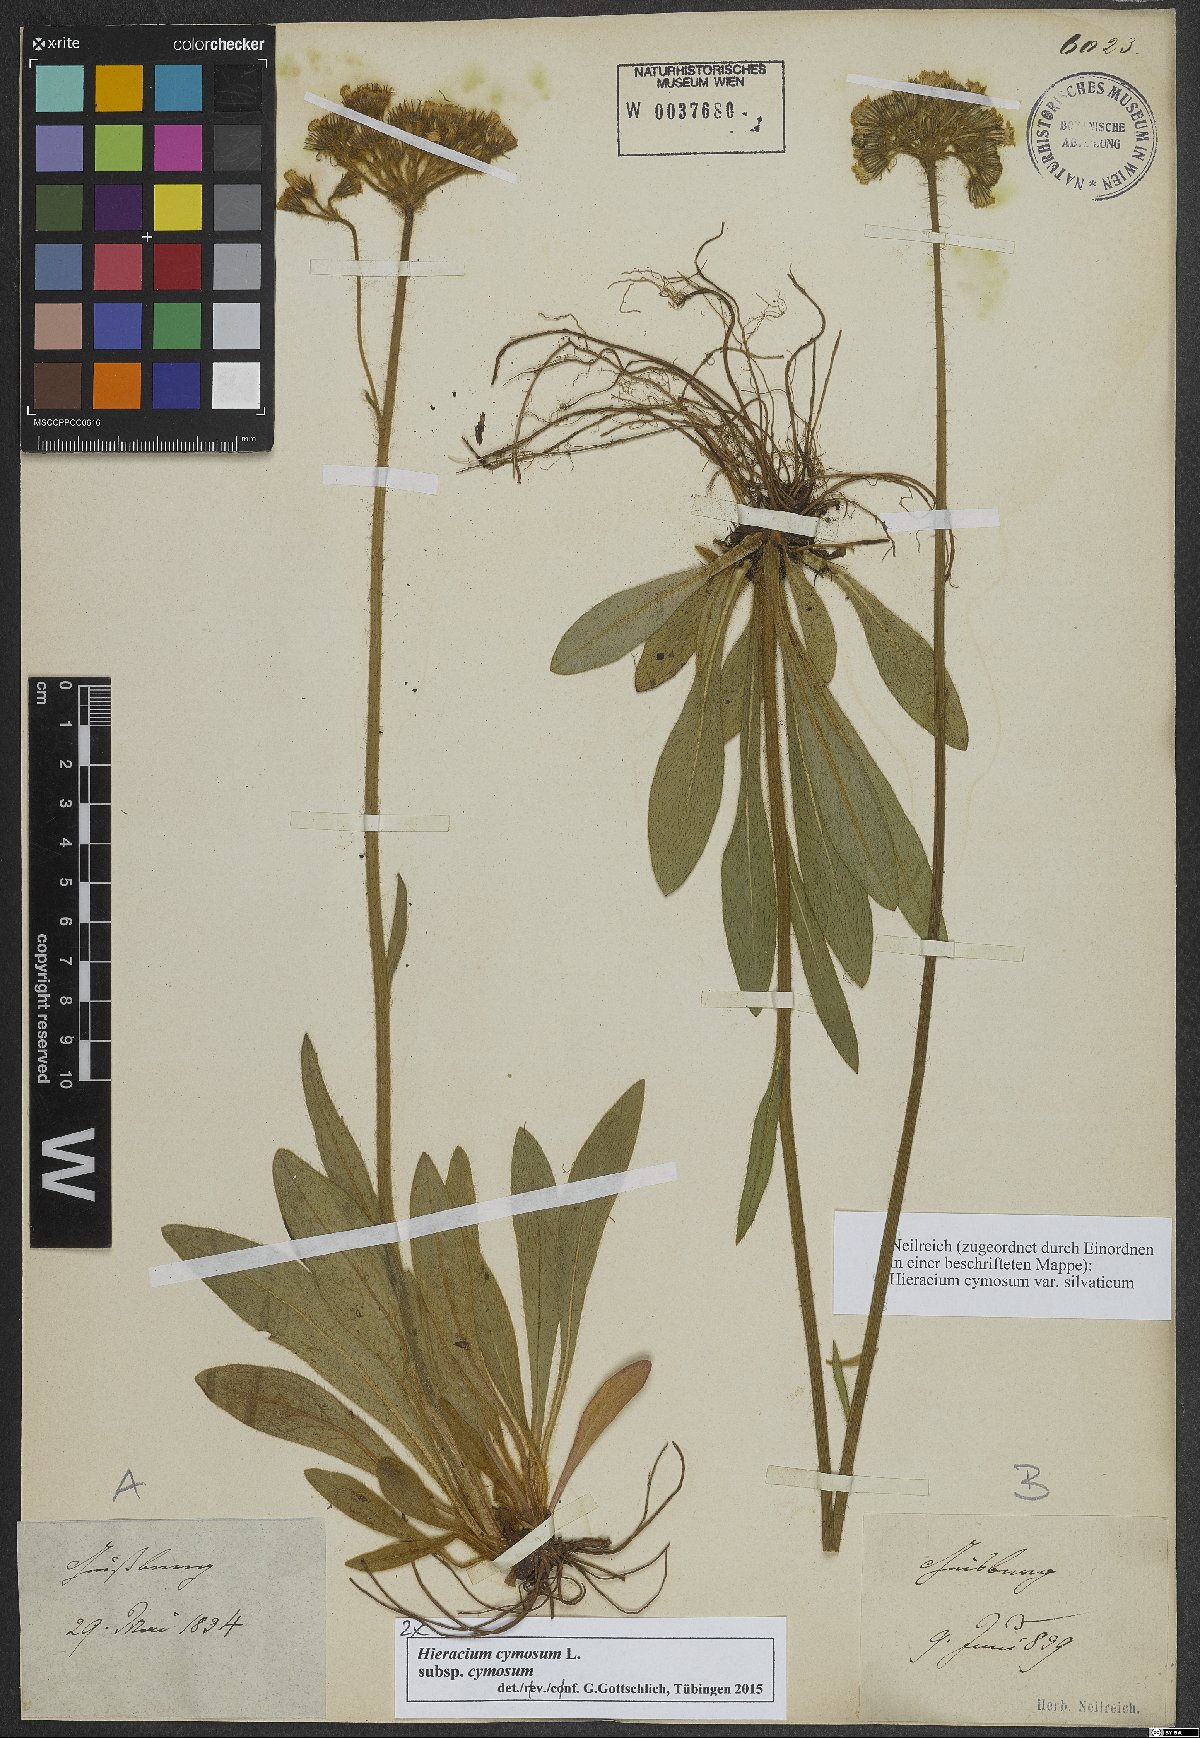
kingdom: Plantae
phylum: Tracheophyta
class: Magnoliopsida
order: Asterales
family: Asteraceae
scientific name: Asteraceae
